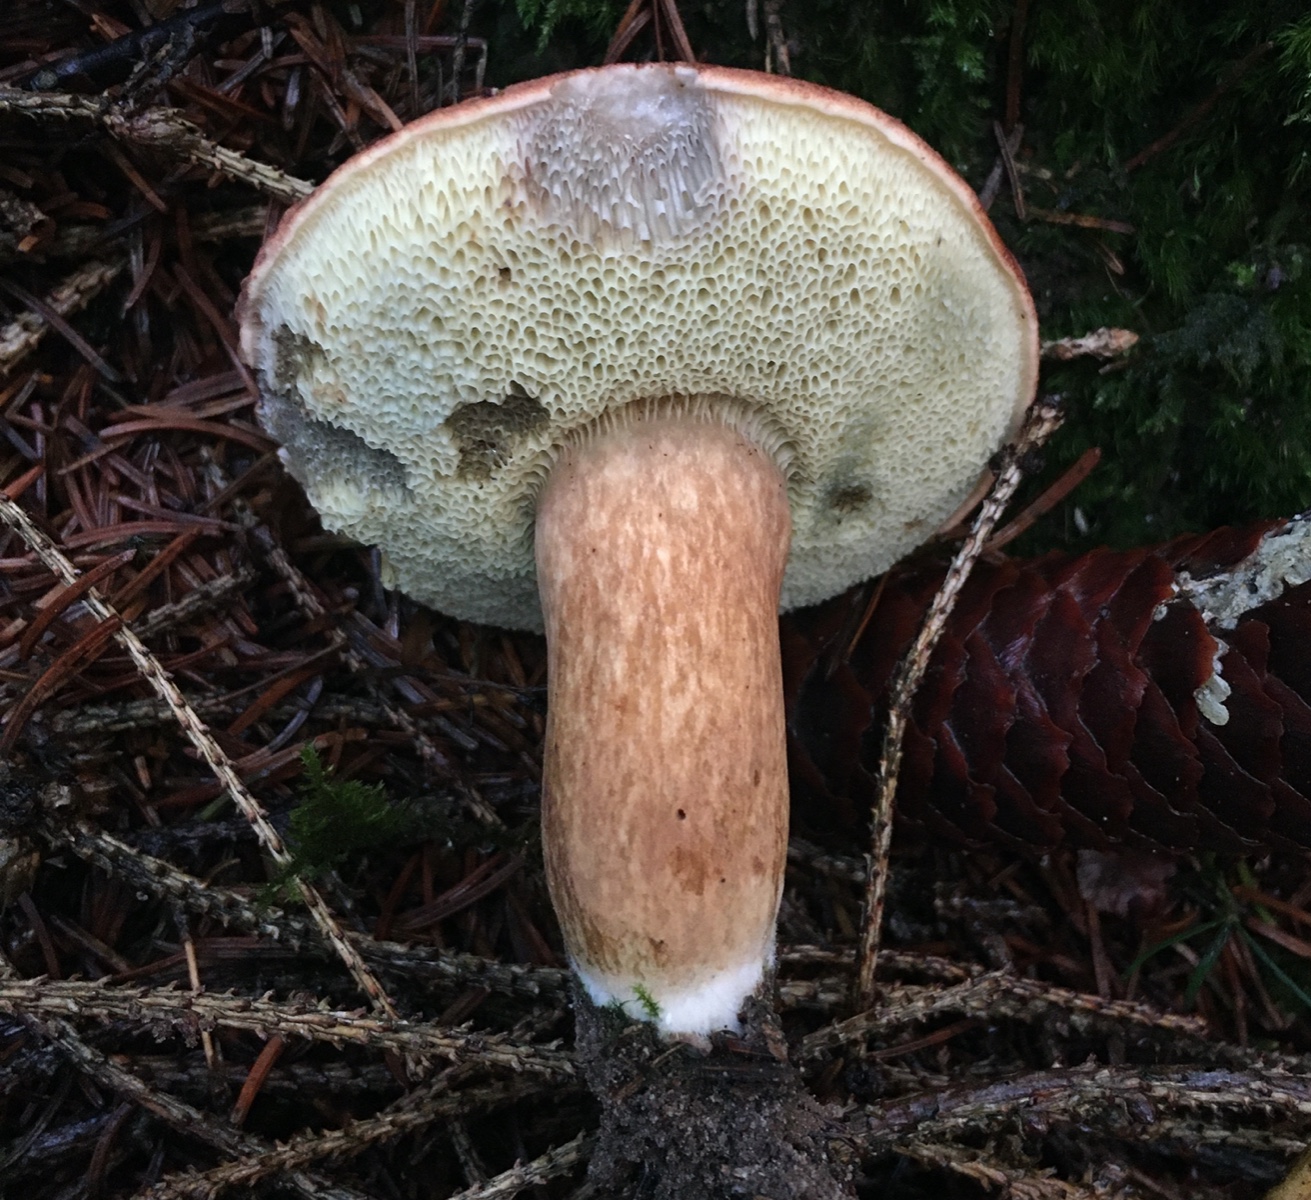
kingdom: Fungi
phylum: Basidiomycota
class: Agaricomycetes
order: Boletales
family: Boletaceae
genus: Imleria
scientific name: Imleria badia
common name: brunstokket rørhat
